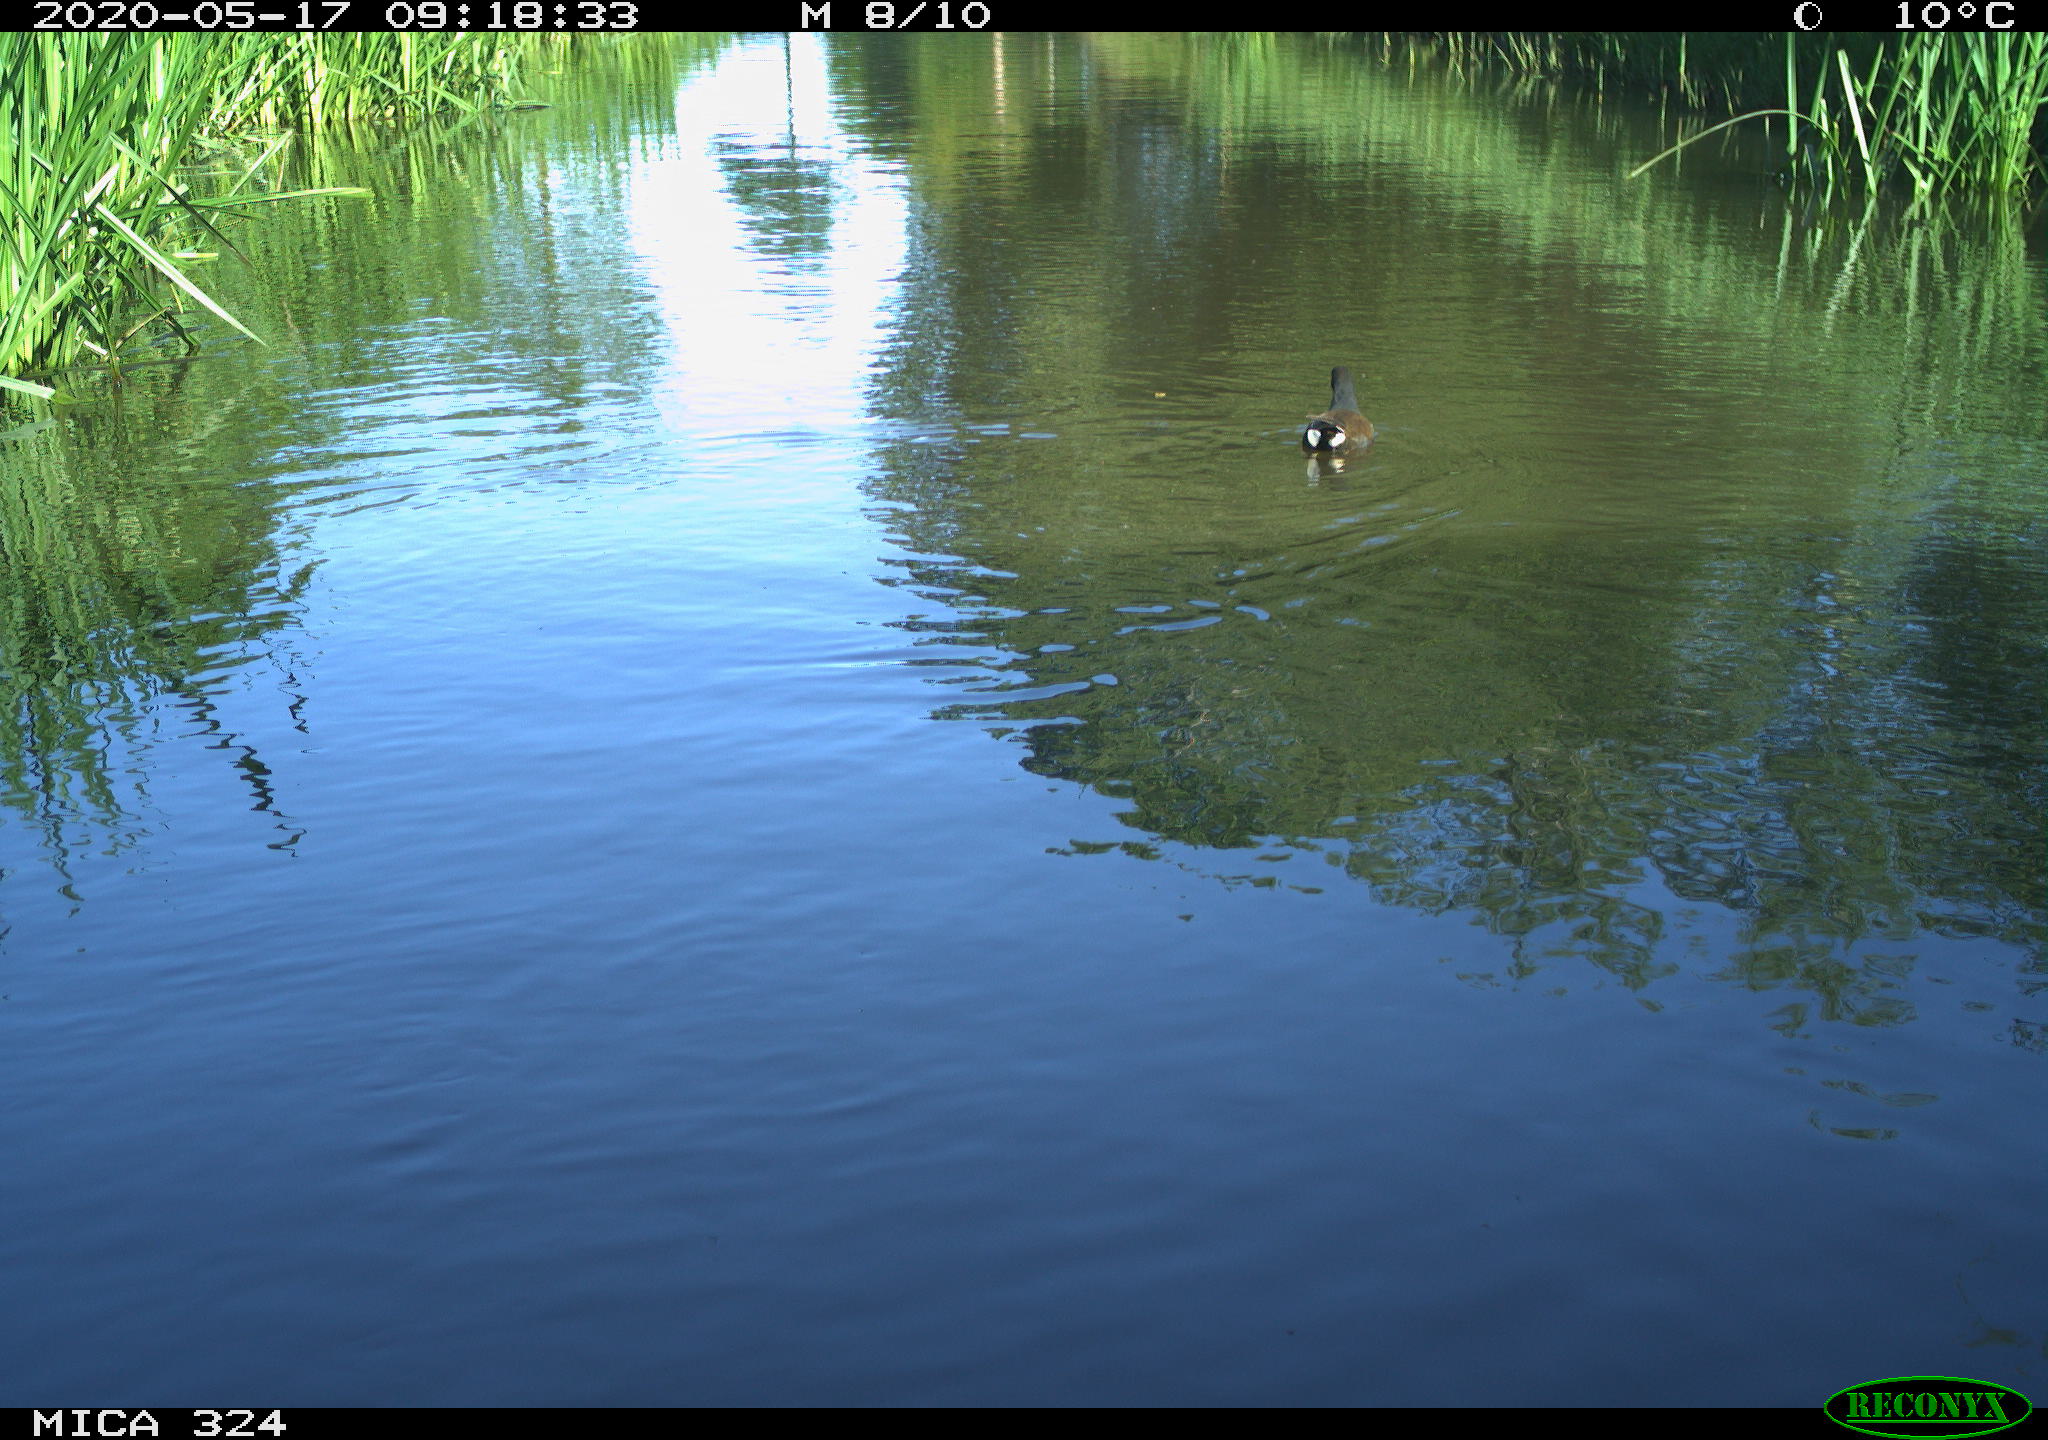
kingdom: Animalia
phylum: Chordata
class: Aves
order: Gruiformes
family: Rallidae
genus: Gallinula
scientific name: Gallinula chloropus
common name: Common moorhen
